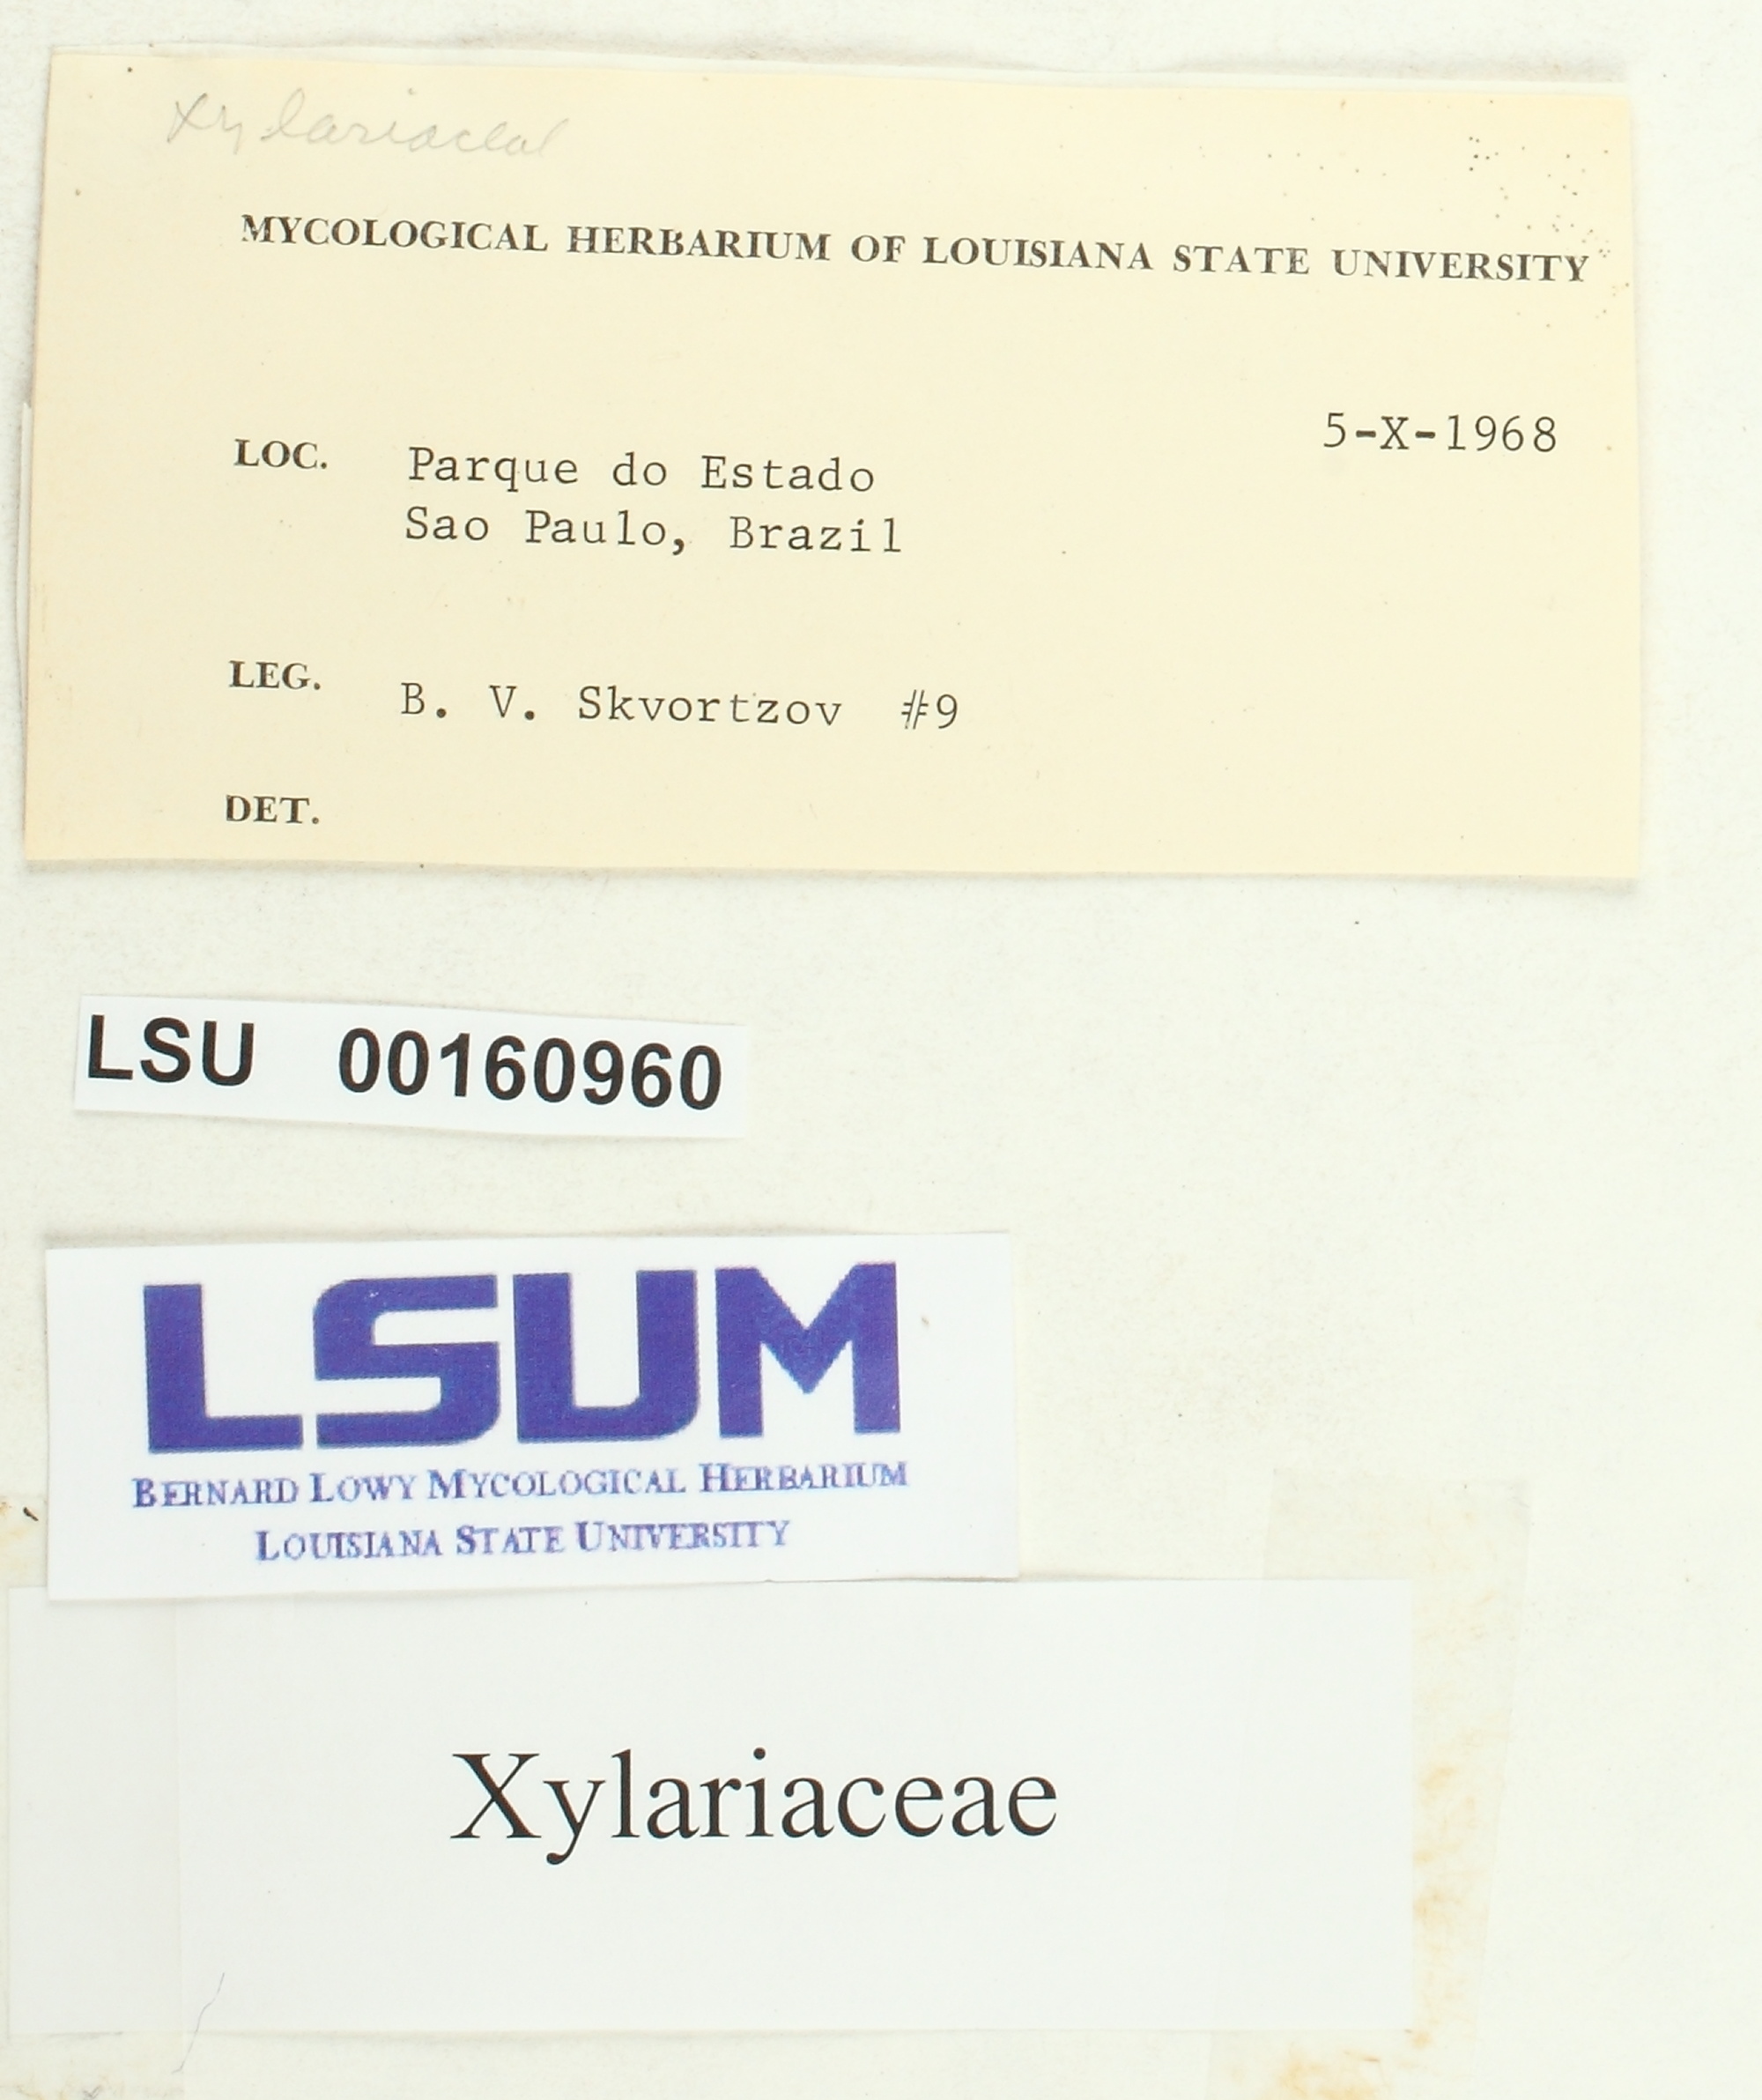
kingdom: Fungi
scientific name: Fungi
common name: Fungi
